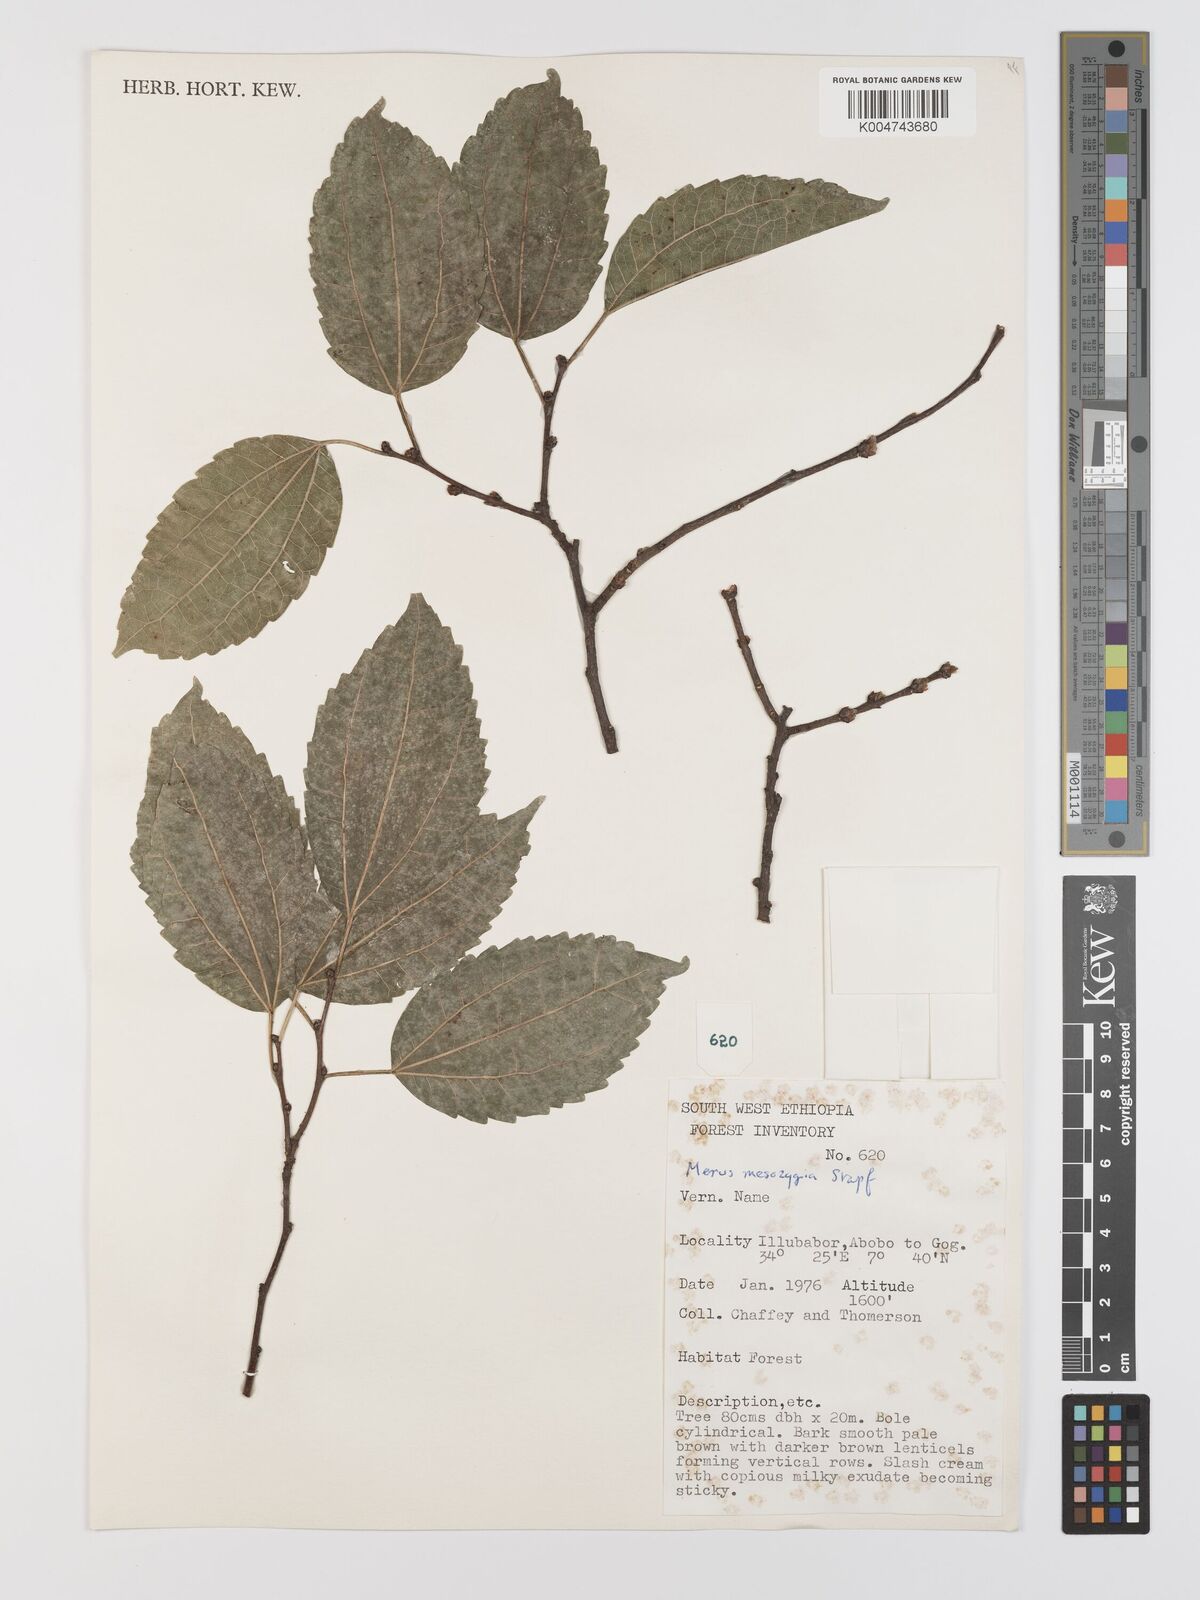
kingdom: Plantae
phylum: Tracheophyta
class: Magnoliopsida
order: Rosales
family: Moraceae
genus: Afromorus
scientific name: Afromorus mesozygia
